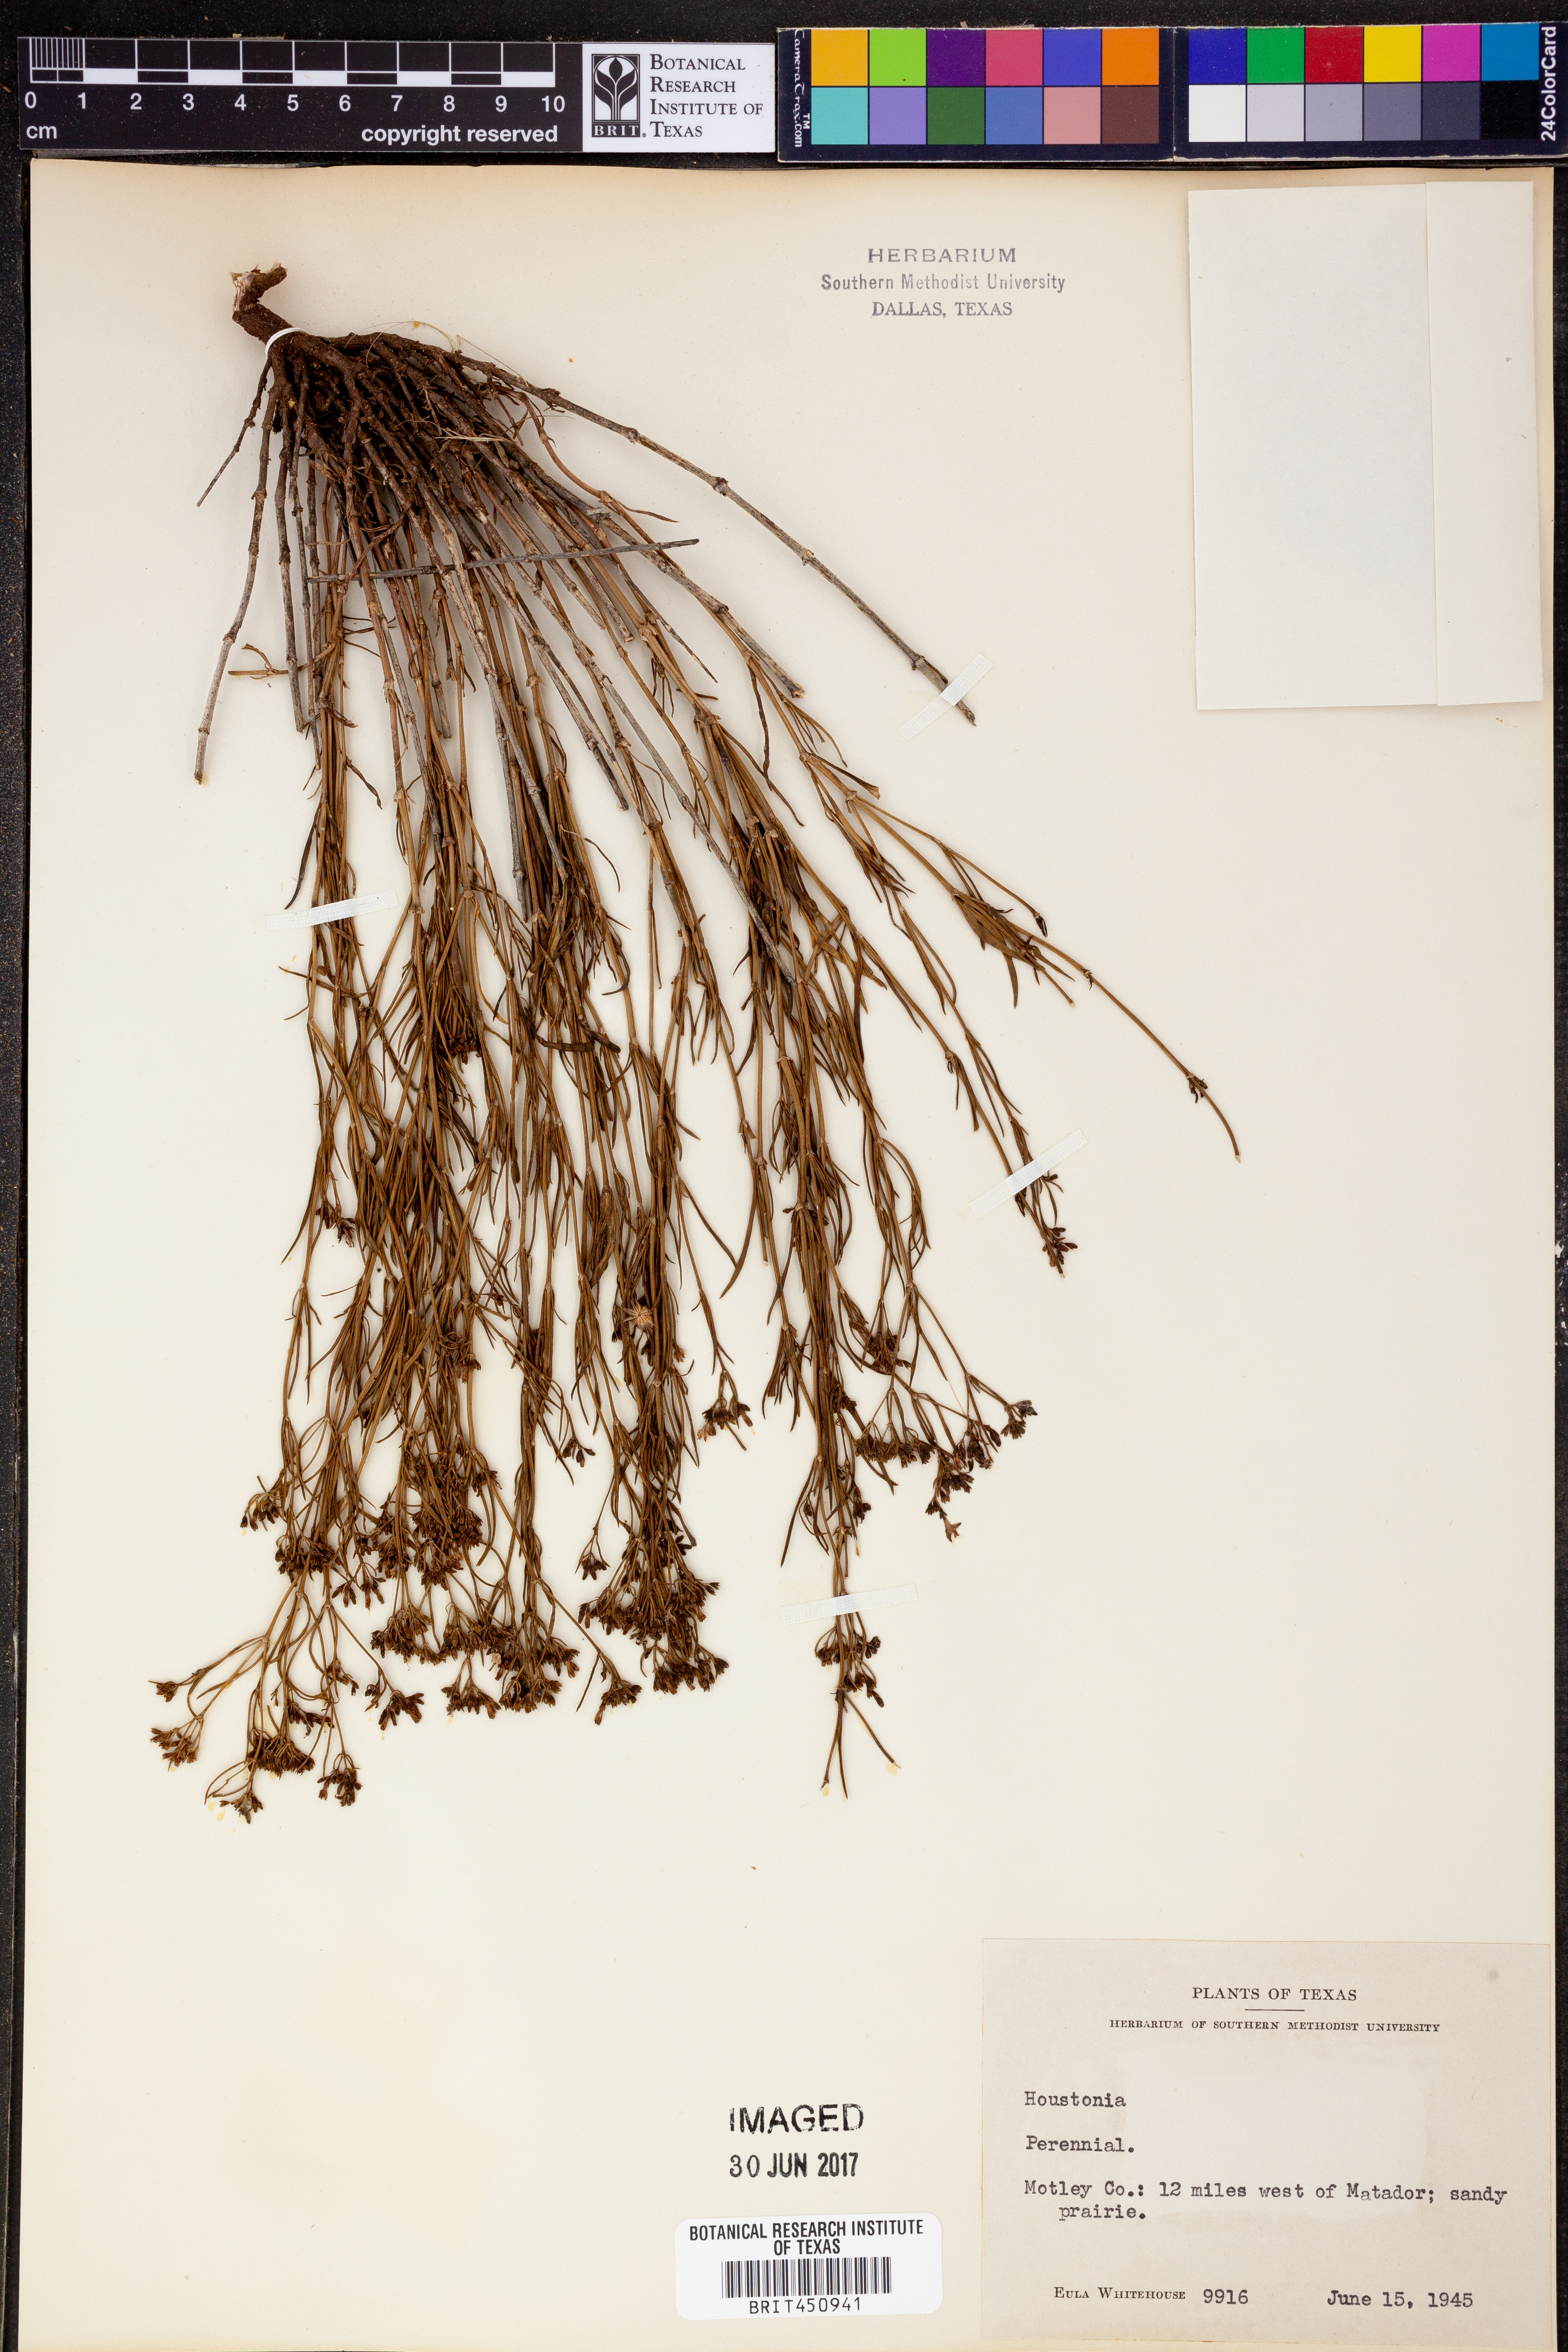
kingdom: Plantae
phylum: Tracheophyta
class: Magnoliopsida
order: Gentianales
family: Rubiaceae
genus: Houstonia
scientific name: Houstonia
